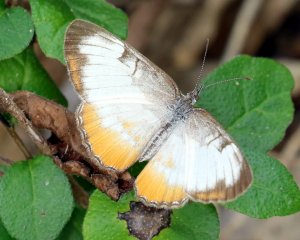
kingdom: Animalia
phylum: Arthropoda
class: Insecta
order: Lepidoptera
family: Nymphalidae
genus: Mestra
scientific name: Mestra amymone
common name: Common Mestra
